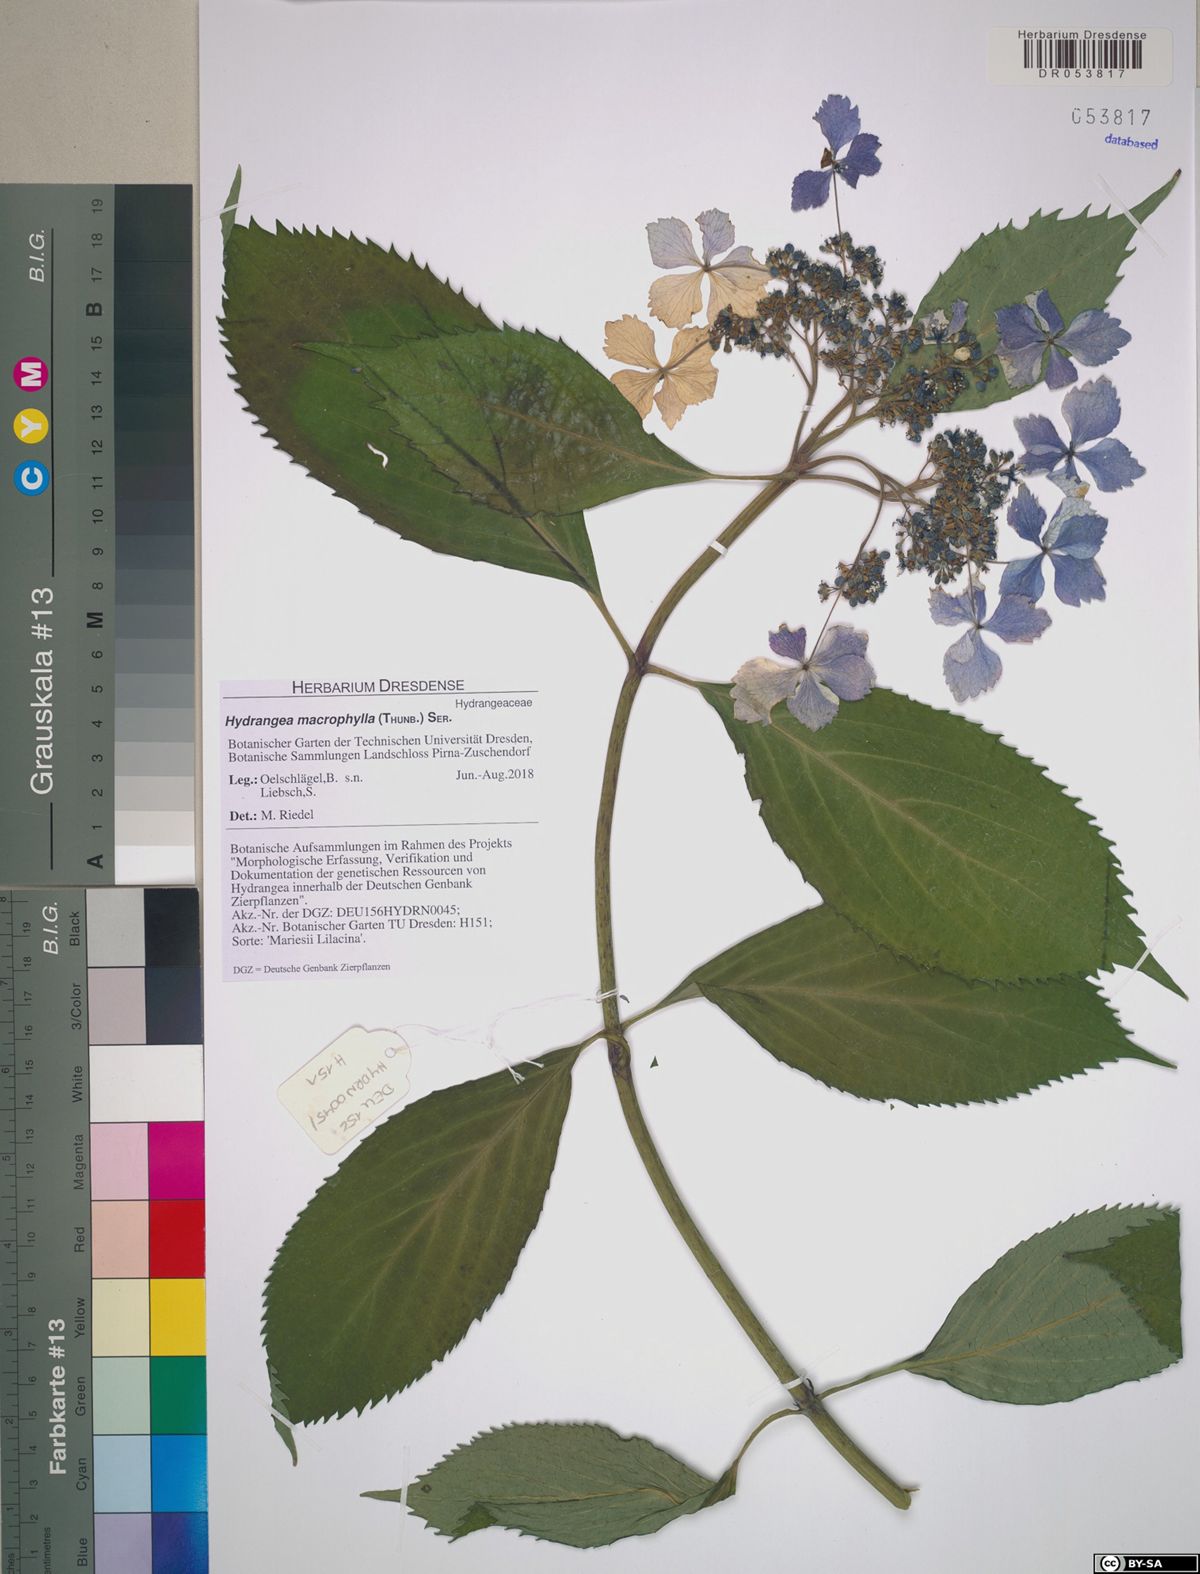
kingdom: Plantae
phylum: Tracheophyta
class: Magnoliopsida
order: Cornales
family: Hydrangeaceae
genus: Hydrangea
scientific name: Hydrangea macrophylla
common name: Hydrangea
